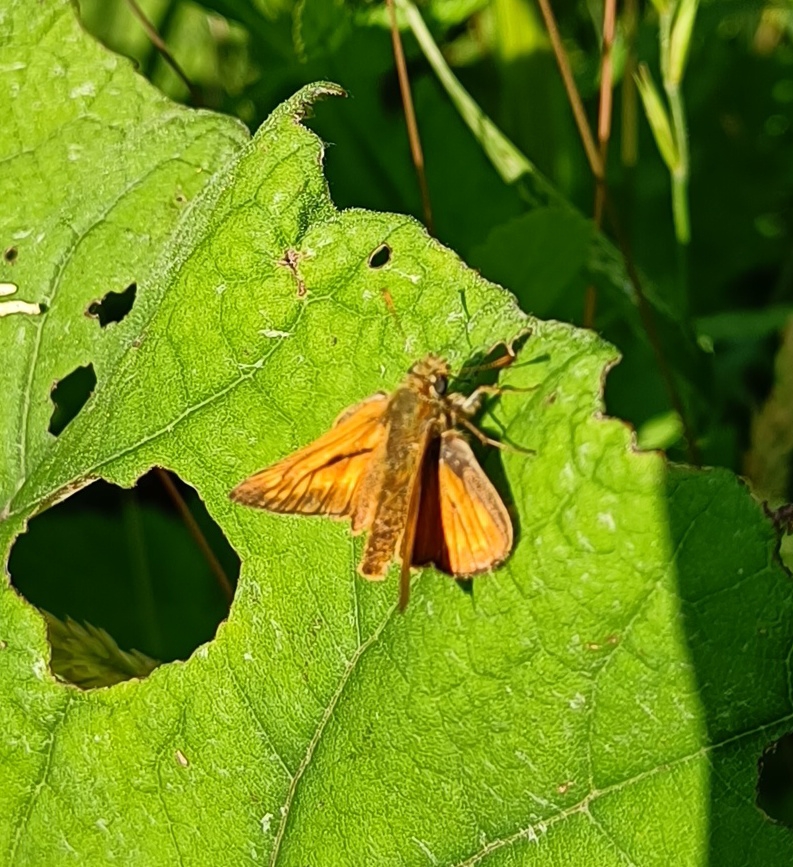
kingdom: Animalia
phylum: Arthropoda
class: Insecta
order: Lepidoptera
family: Hesperiidae
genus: Ochlodes
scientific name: Ochlodes venata
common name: Stor bredpande
